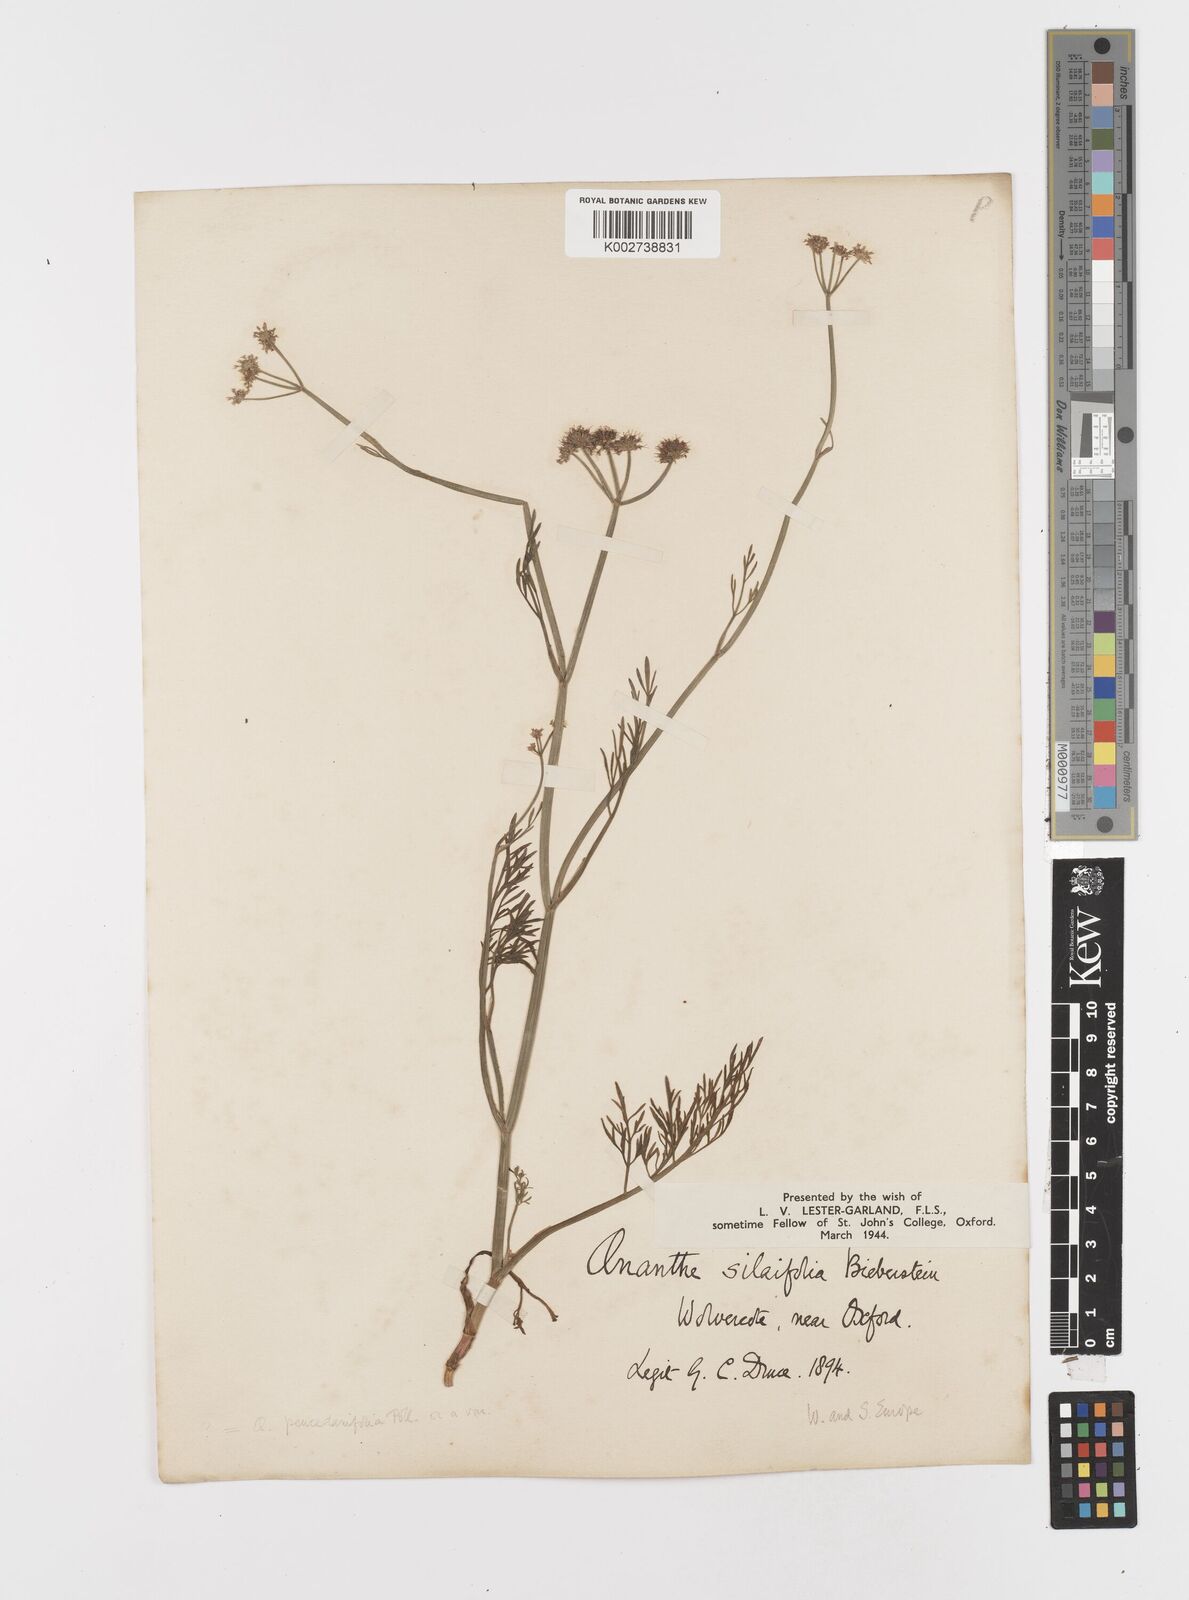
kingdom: Plantae
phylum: Tracheophyta
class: Magnoliopsida
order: Apiales
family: Apiaceae
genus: Oenanthe
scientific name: Oenanthe silaifolia
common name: Narrow-leaved water-dropwort
